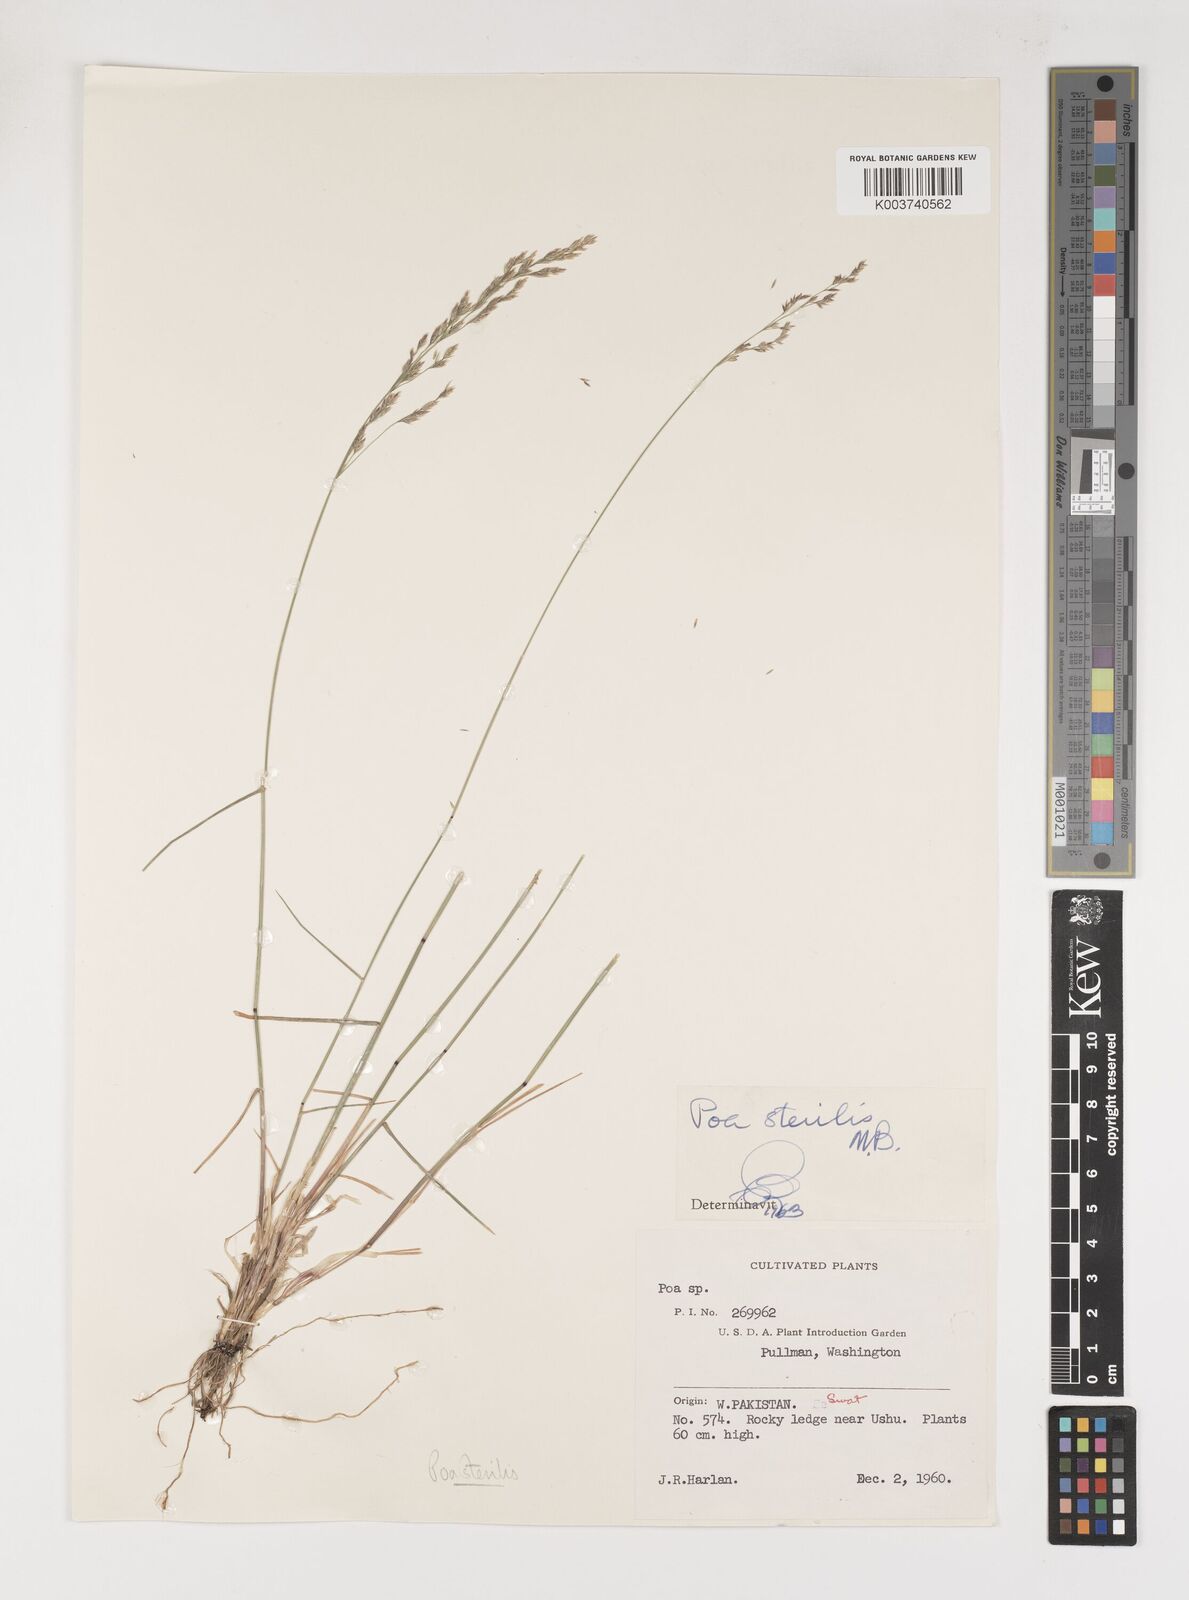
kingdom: Plantae
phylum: Tracheophyta
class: Liliopsida
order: Poales
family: Poaceae
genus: Poa
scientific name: Poa sterilis
